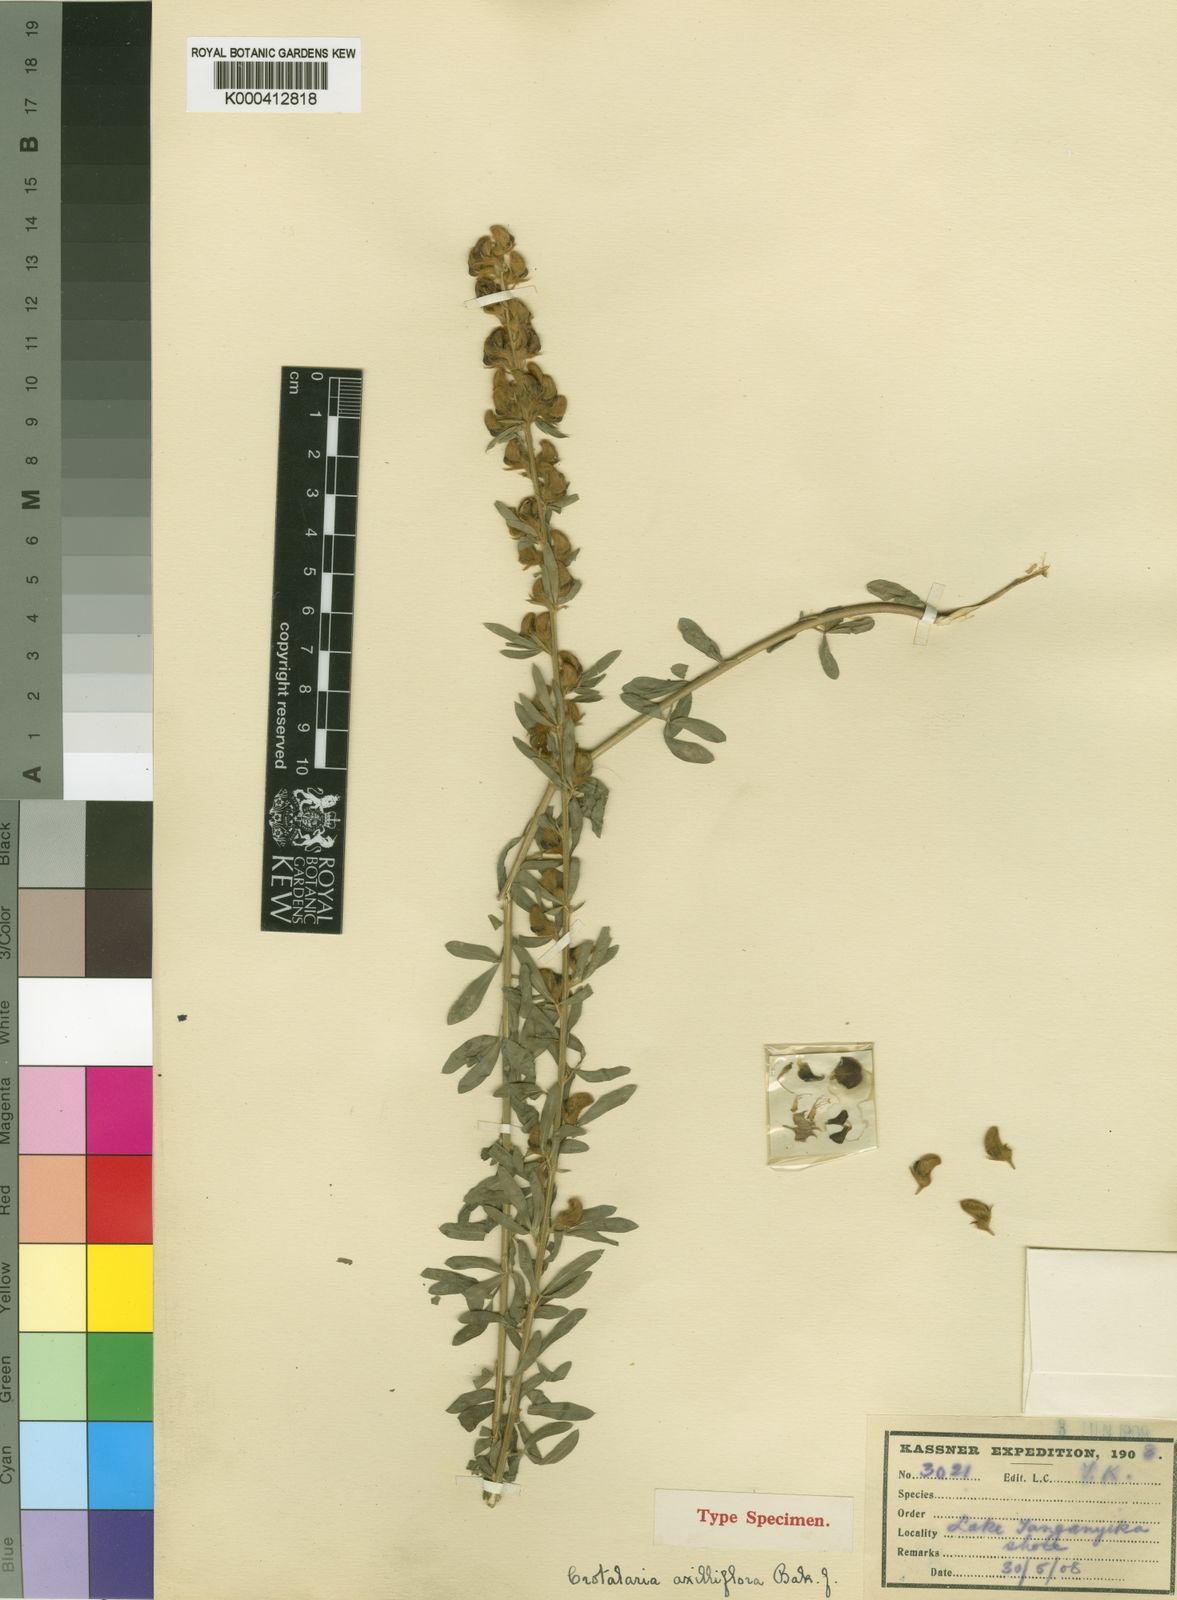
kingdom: Plantae
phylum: Tracheophyta
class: Magnoliopsida
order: Fabales
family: Fabaceae
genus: Crotalaria
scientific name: Crotalaria axilliflora
